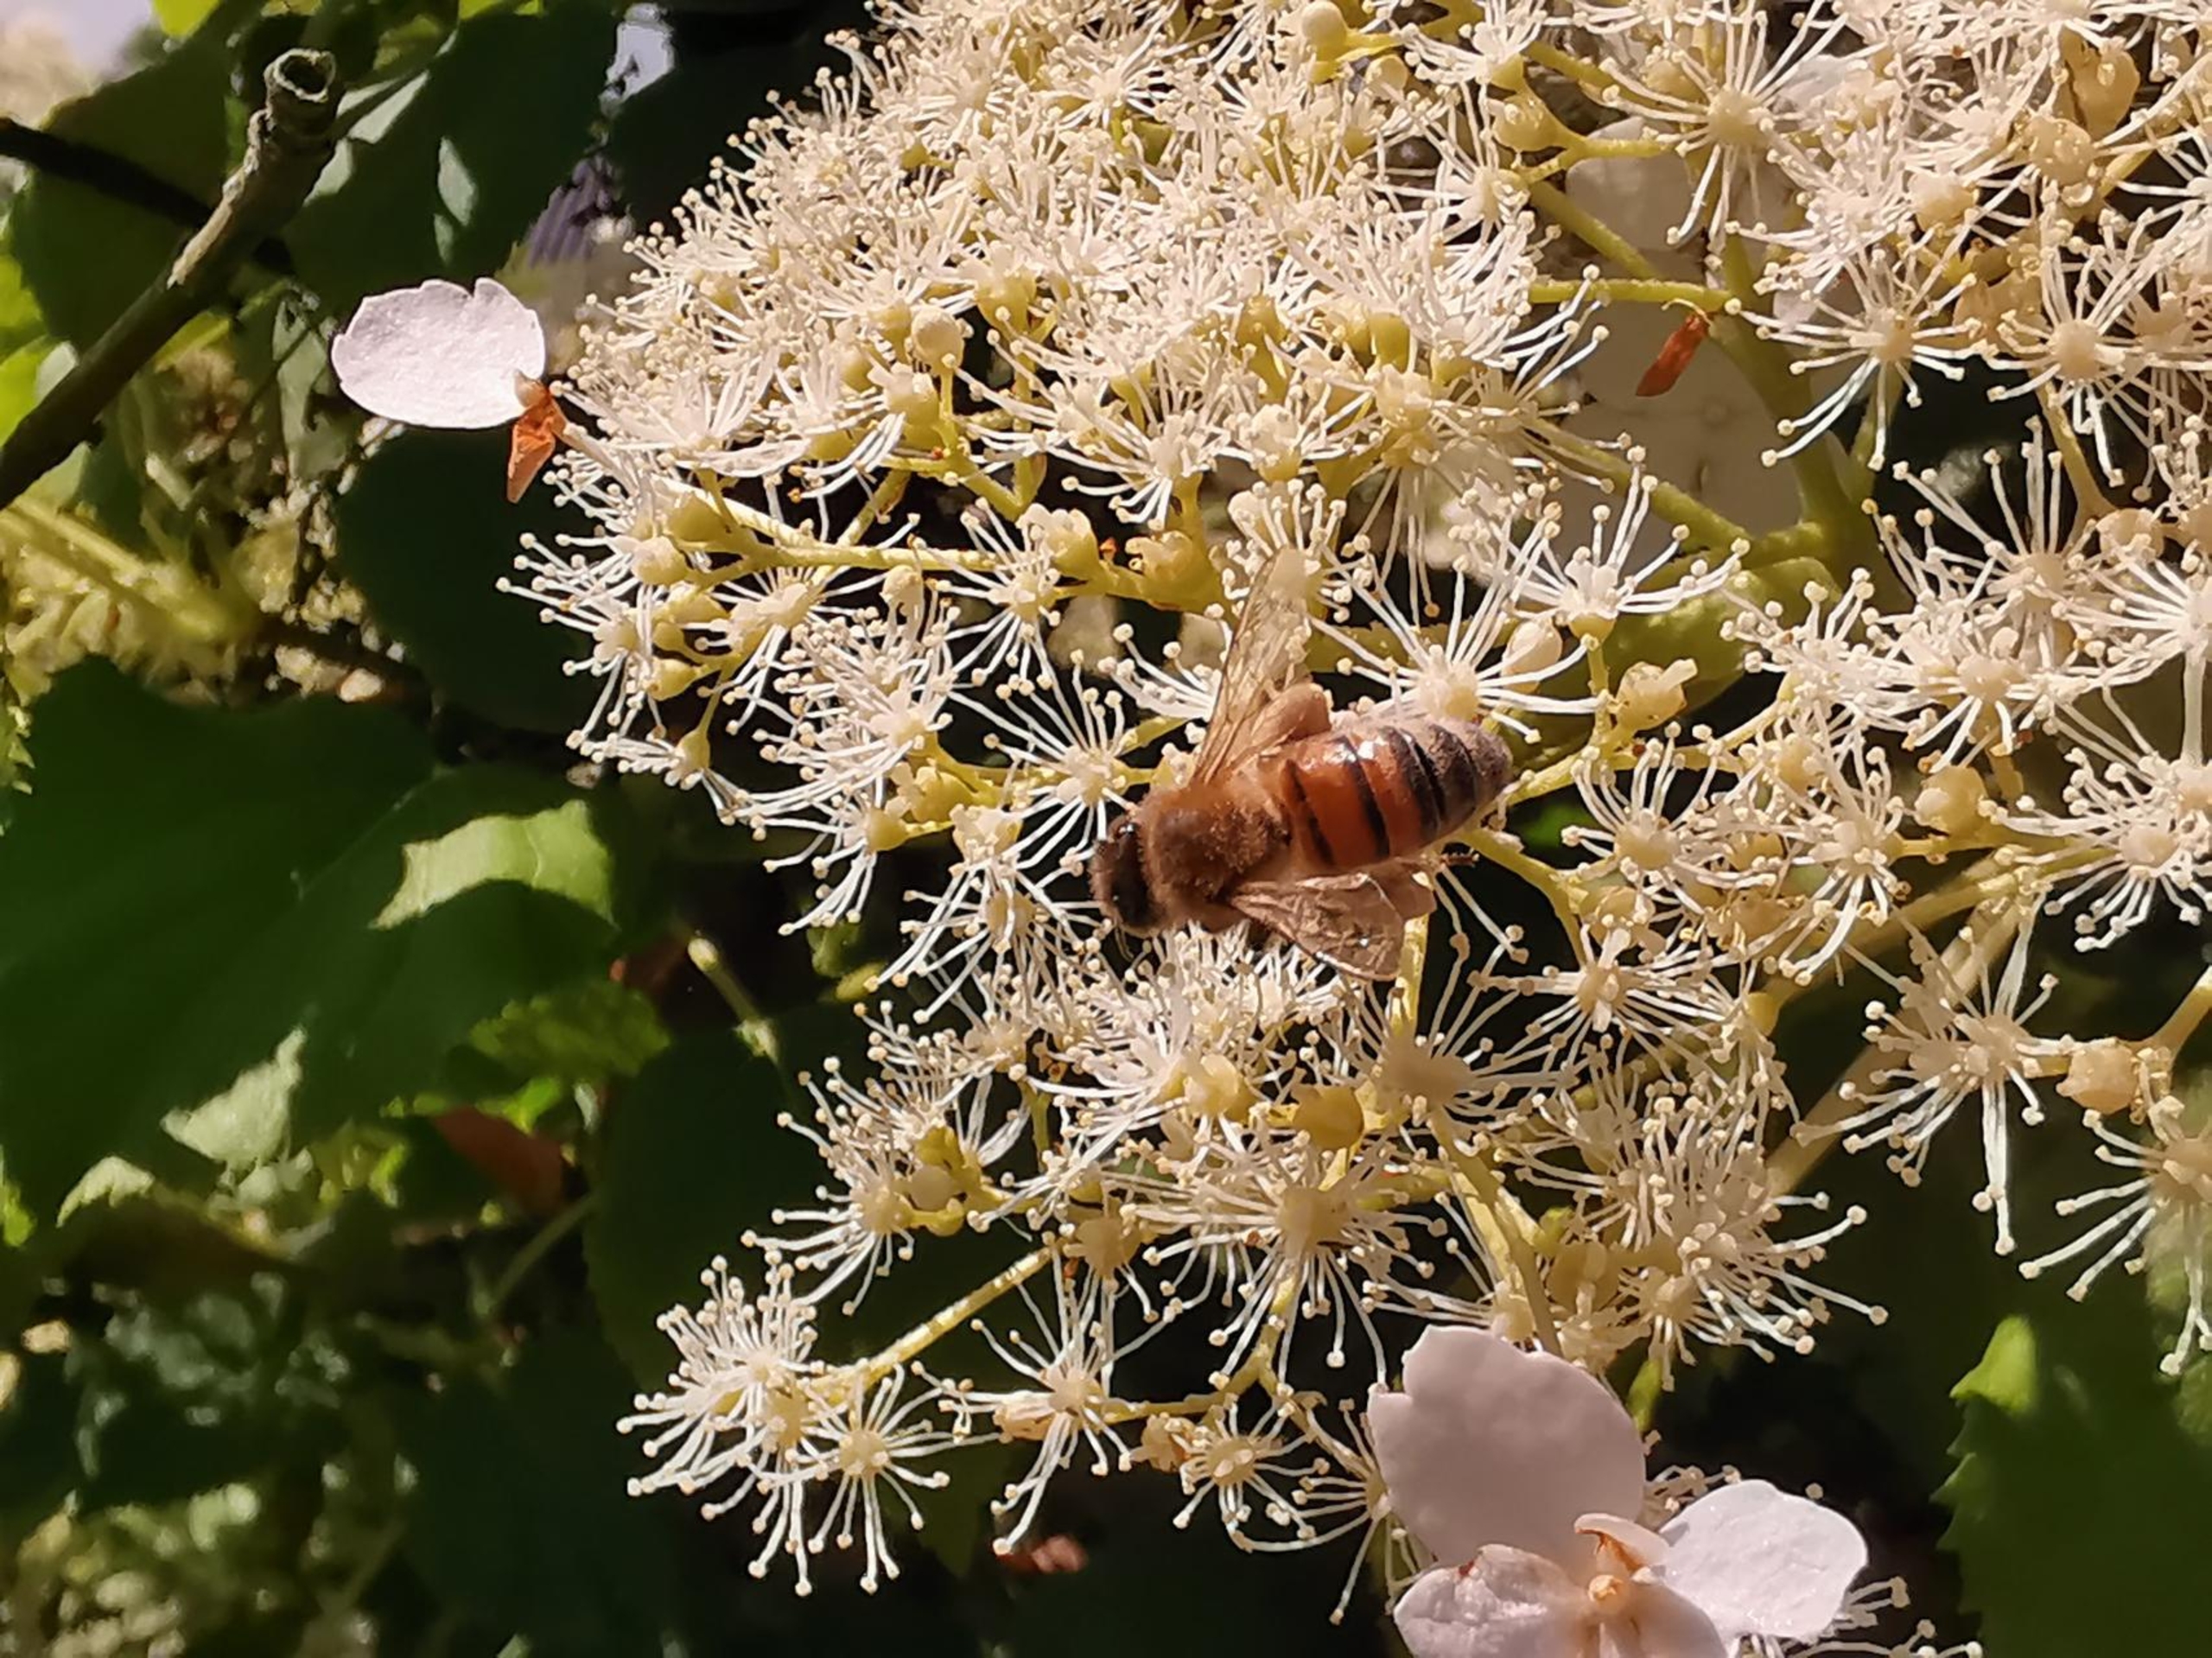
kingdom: Animalia
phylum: Arthropoda
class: Insecta
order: Hymenoptera
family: Apidae
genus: Apis
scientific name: Apis mellifera
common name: Honningbi
